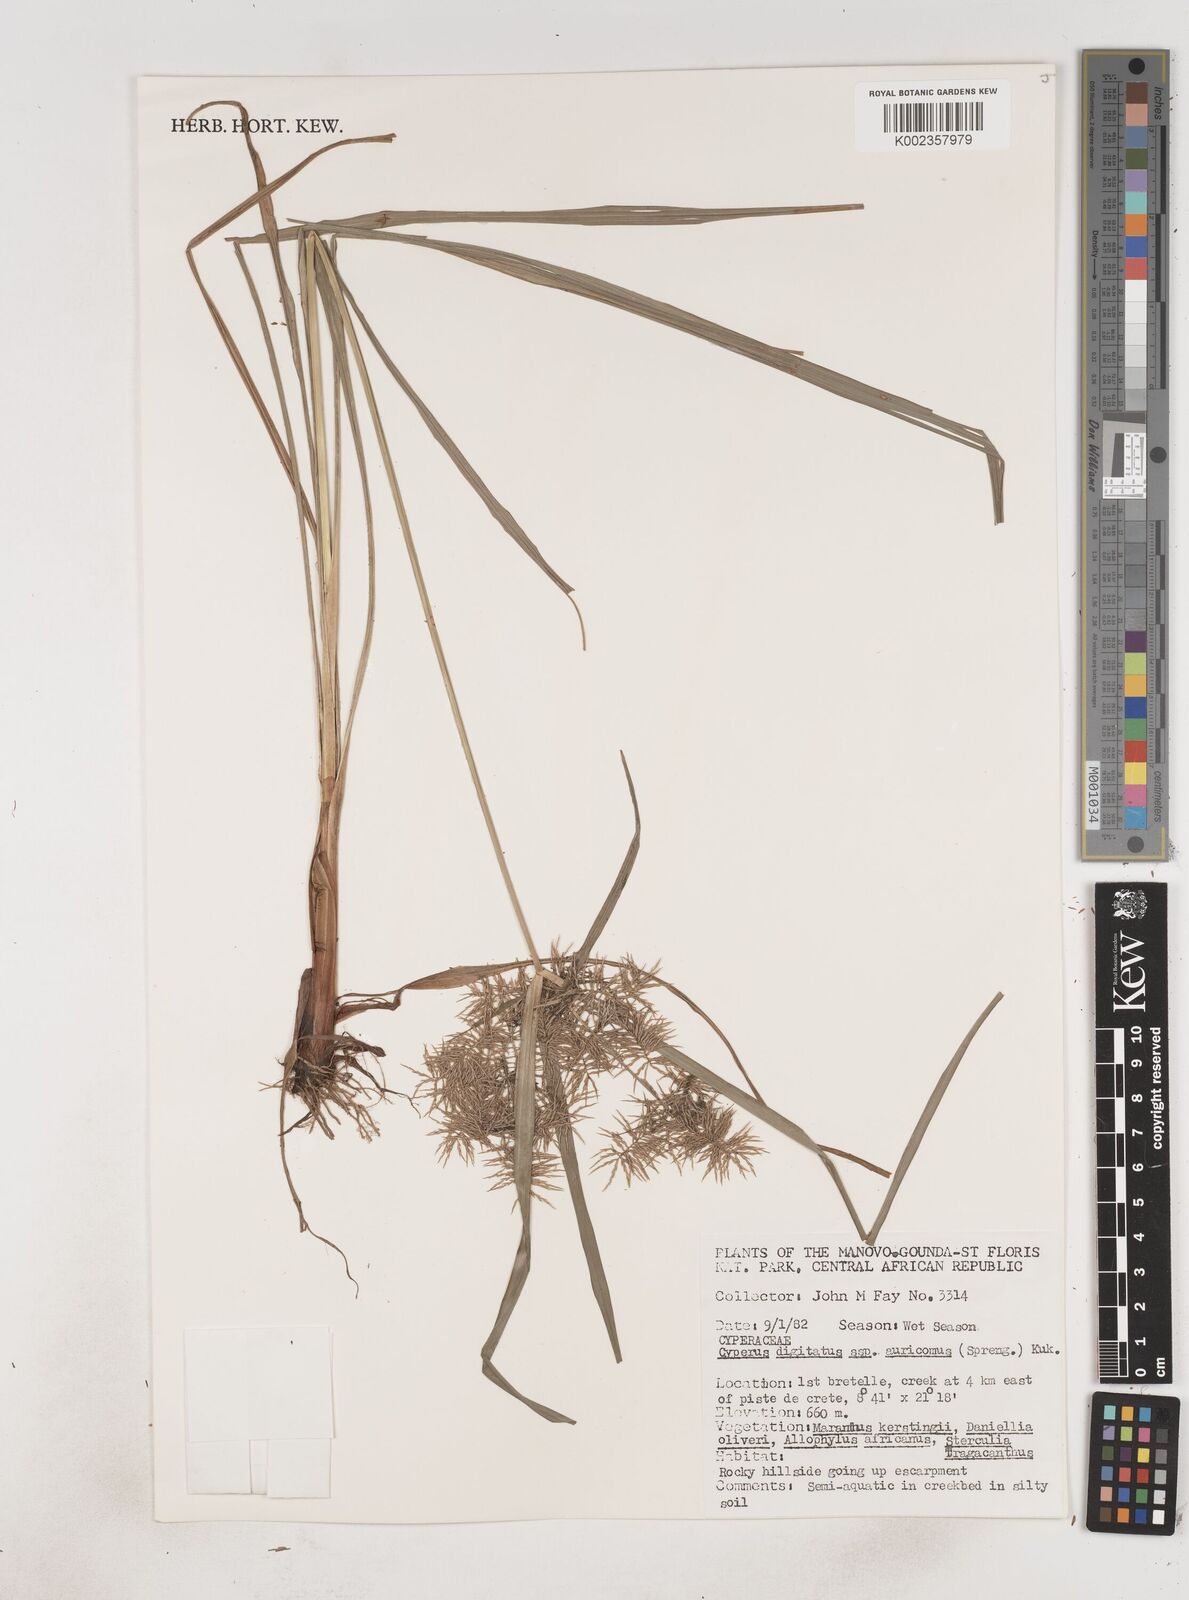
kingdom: Plantae
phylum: Tracheophyta
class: Liliopsida
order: Poales
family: Cyperaceae
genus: Cyperus
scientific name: Cyperus digitatus
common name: Finger flatsedge
